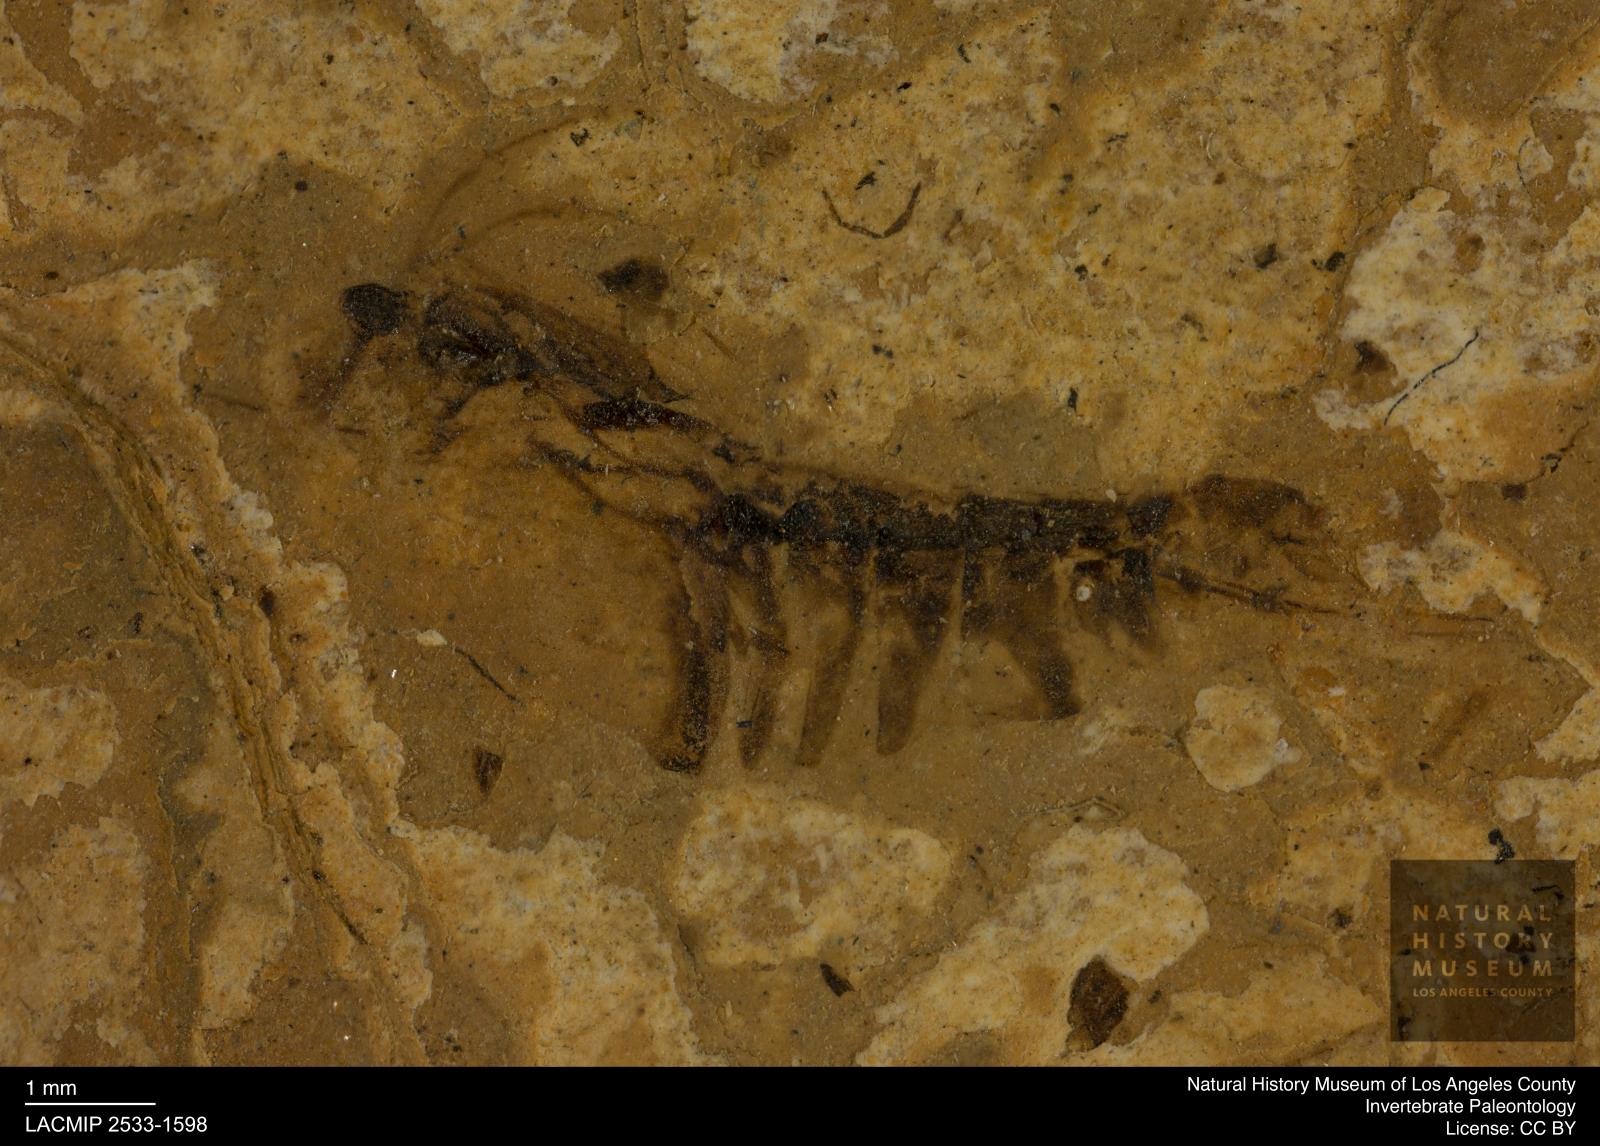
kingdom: Animalia
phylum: Arthropoda
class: Insecta
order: Hemiptera
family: Notonectidae
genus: Notonecta
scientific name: Notonecta
